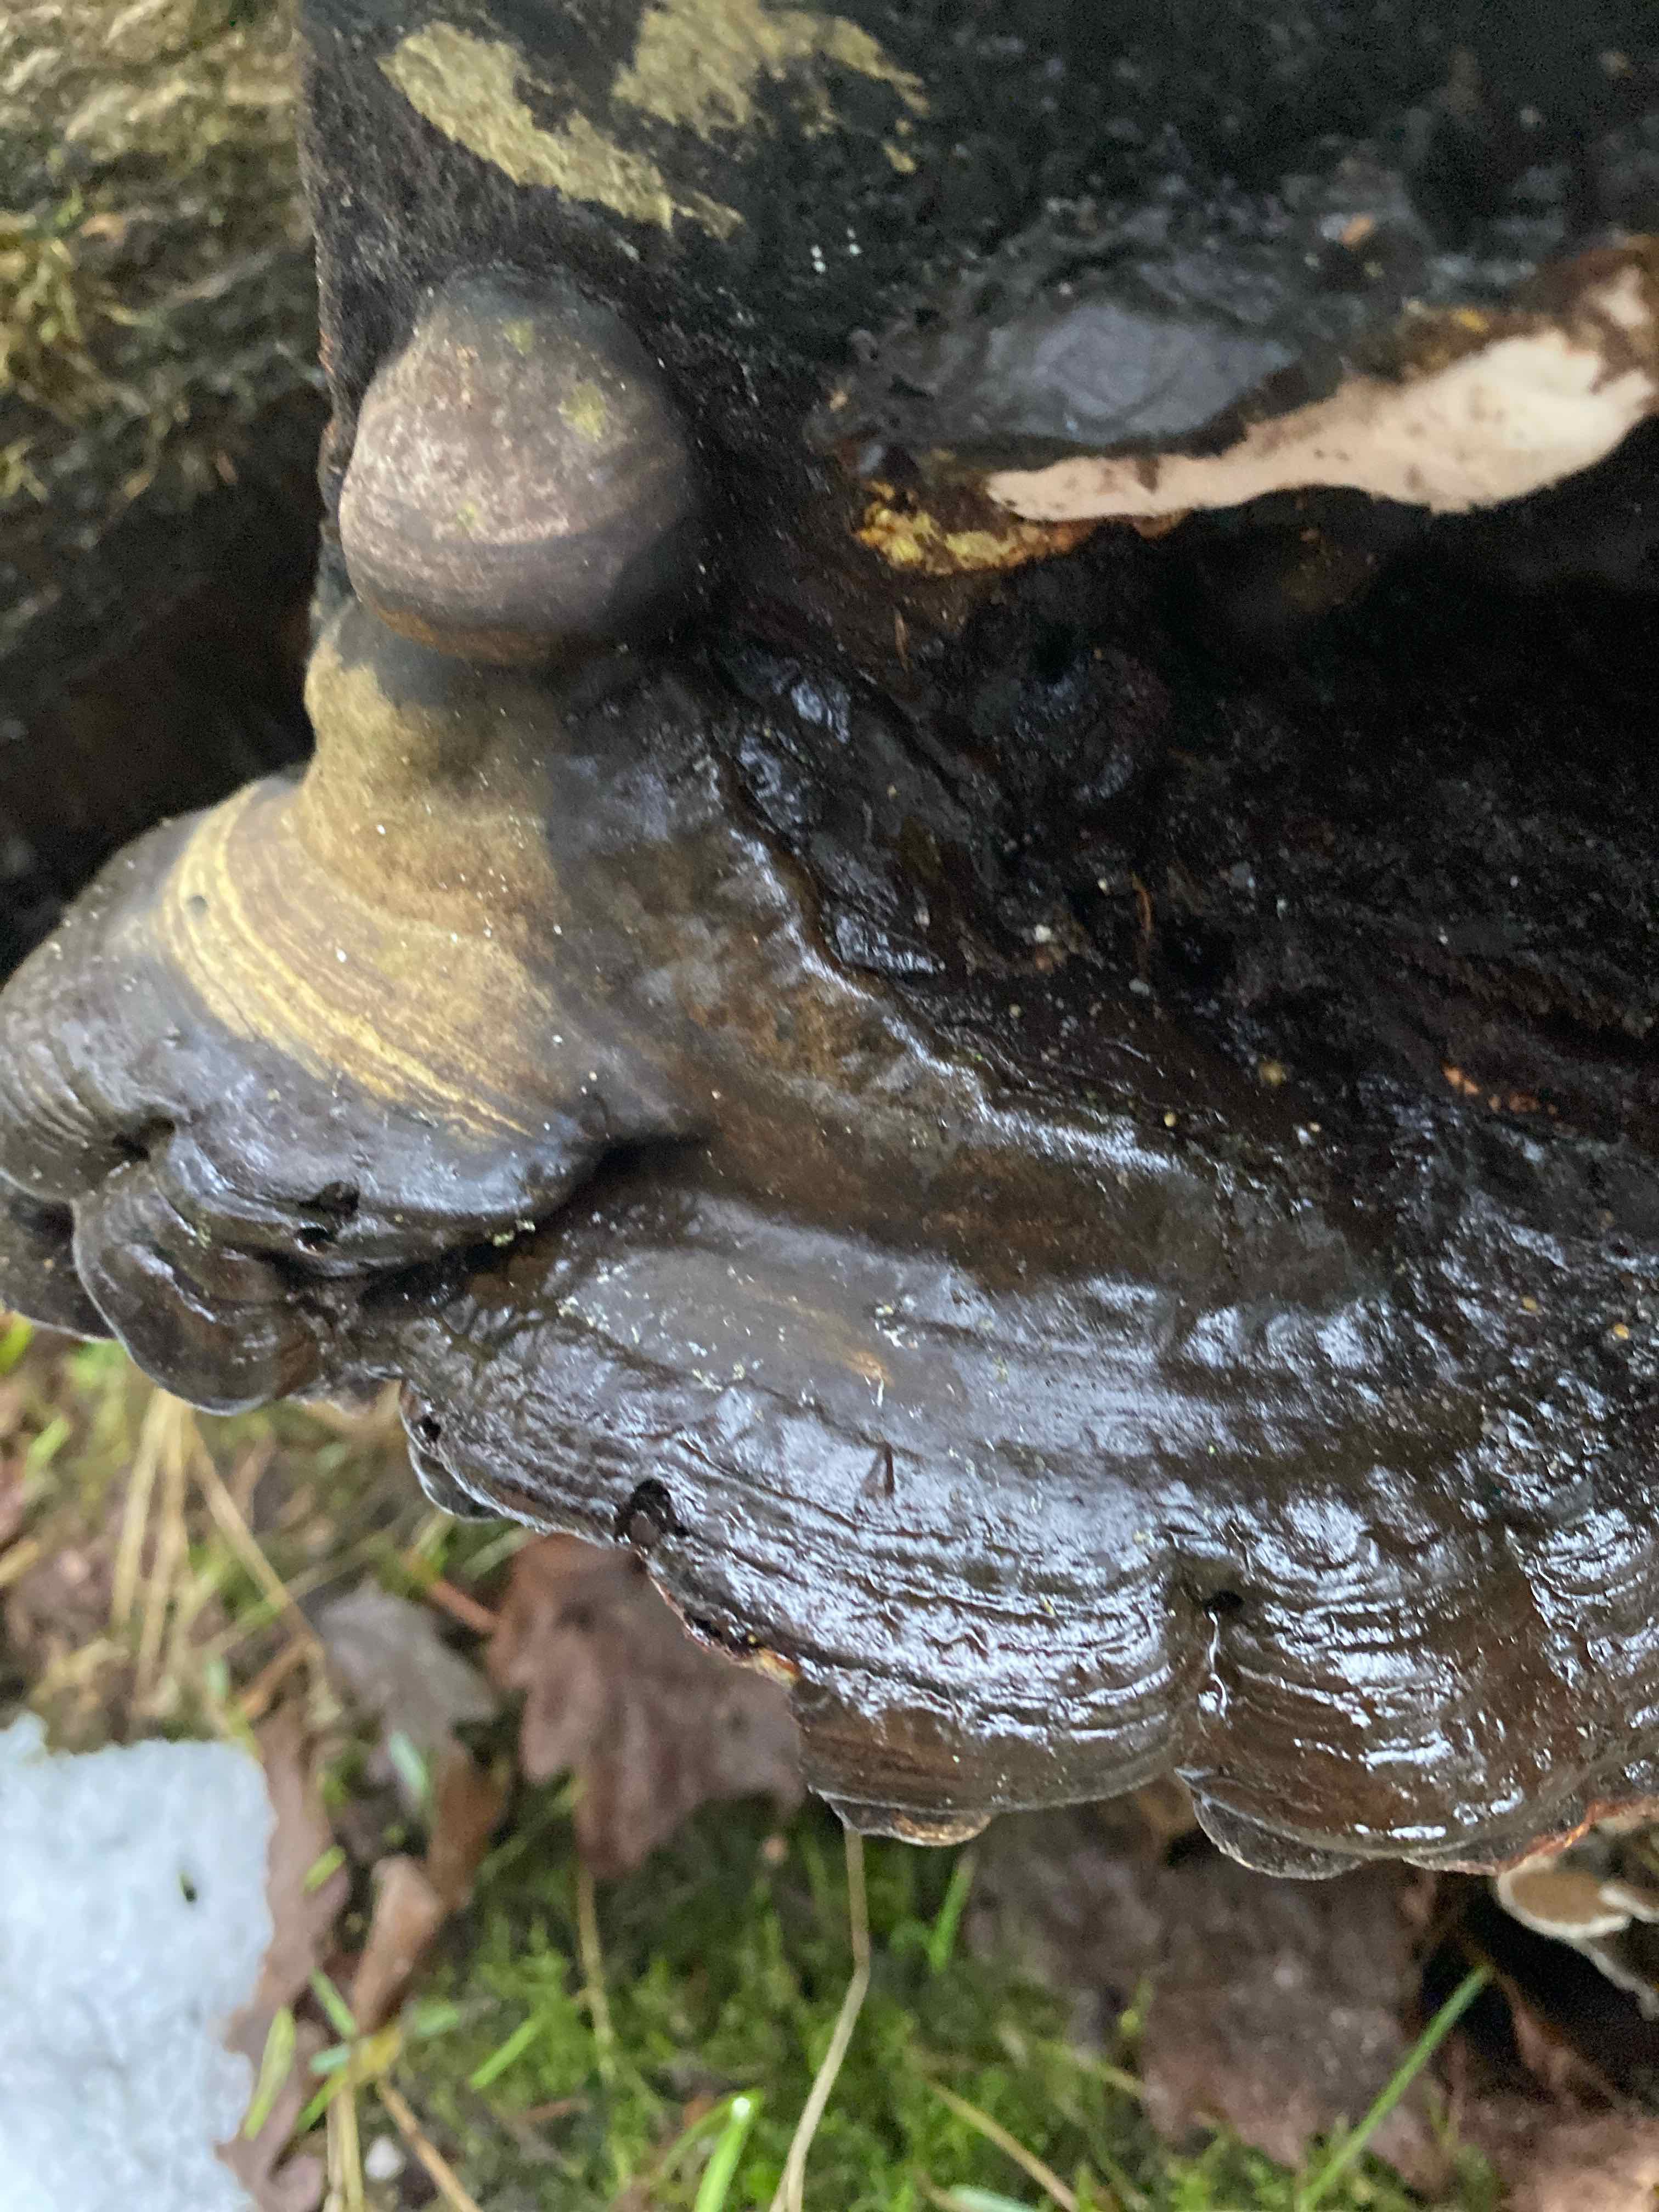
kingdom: Fungi
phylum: Basidiomycota
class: Agaricomycetes
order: Polyporales
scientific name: Polyporales
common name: poresvampordenen
